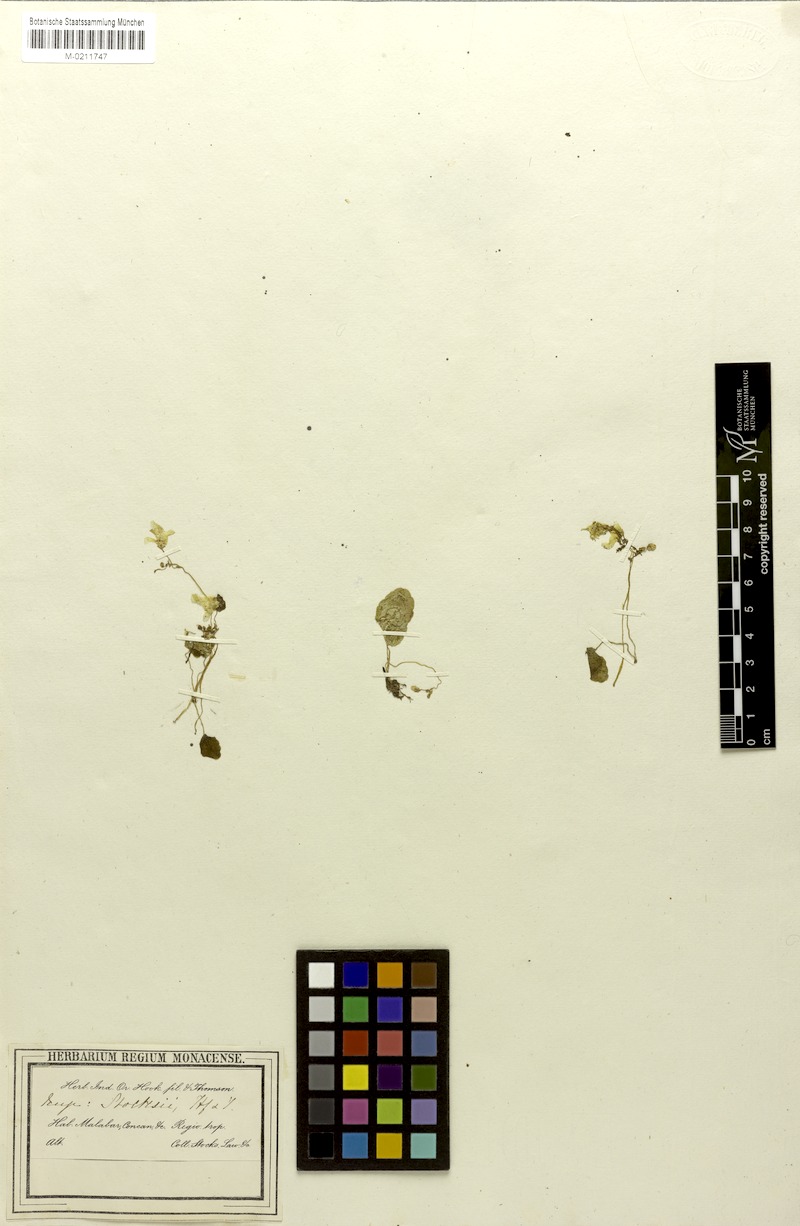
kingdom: Plantae
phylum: Tracheophyta
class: Magnoliopsida
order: Ericales
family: Balsaminaceae
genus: Impatiens
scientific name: Impatiens stocksii
